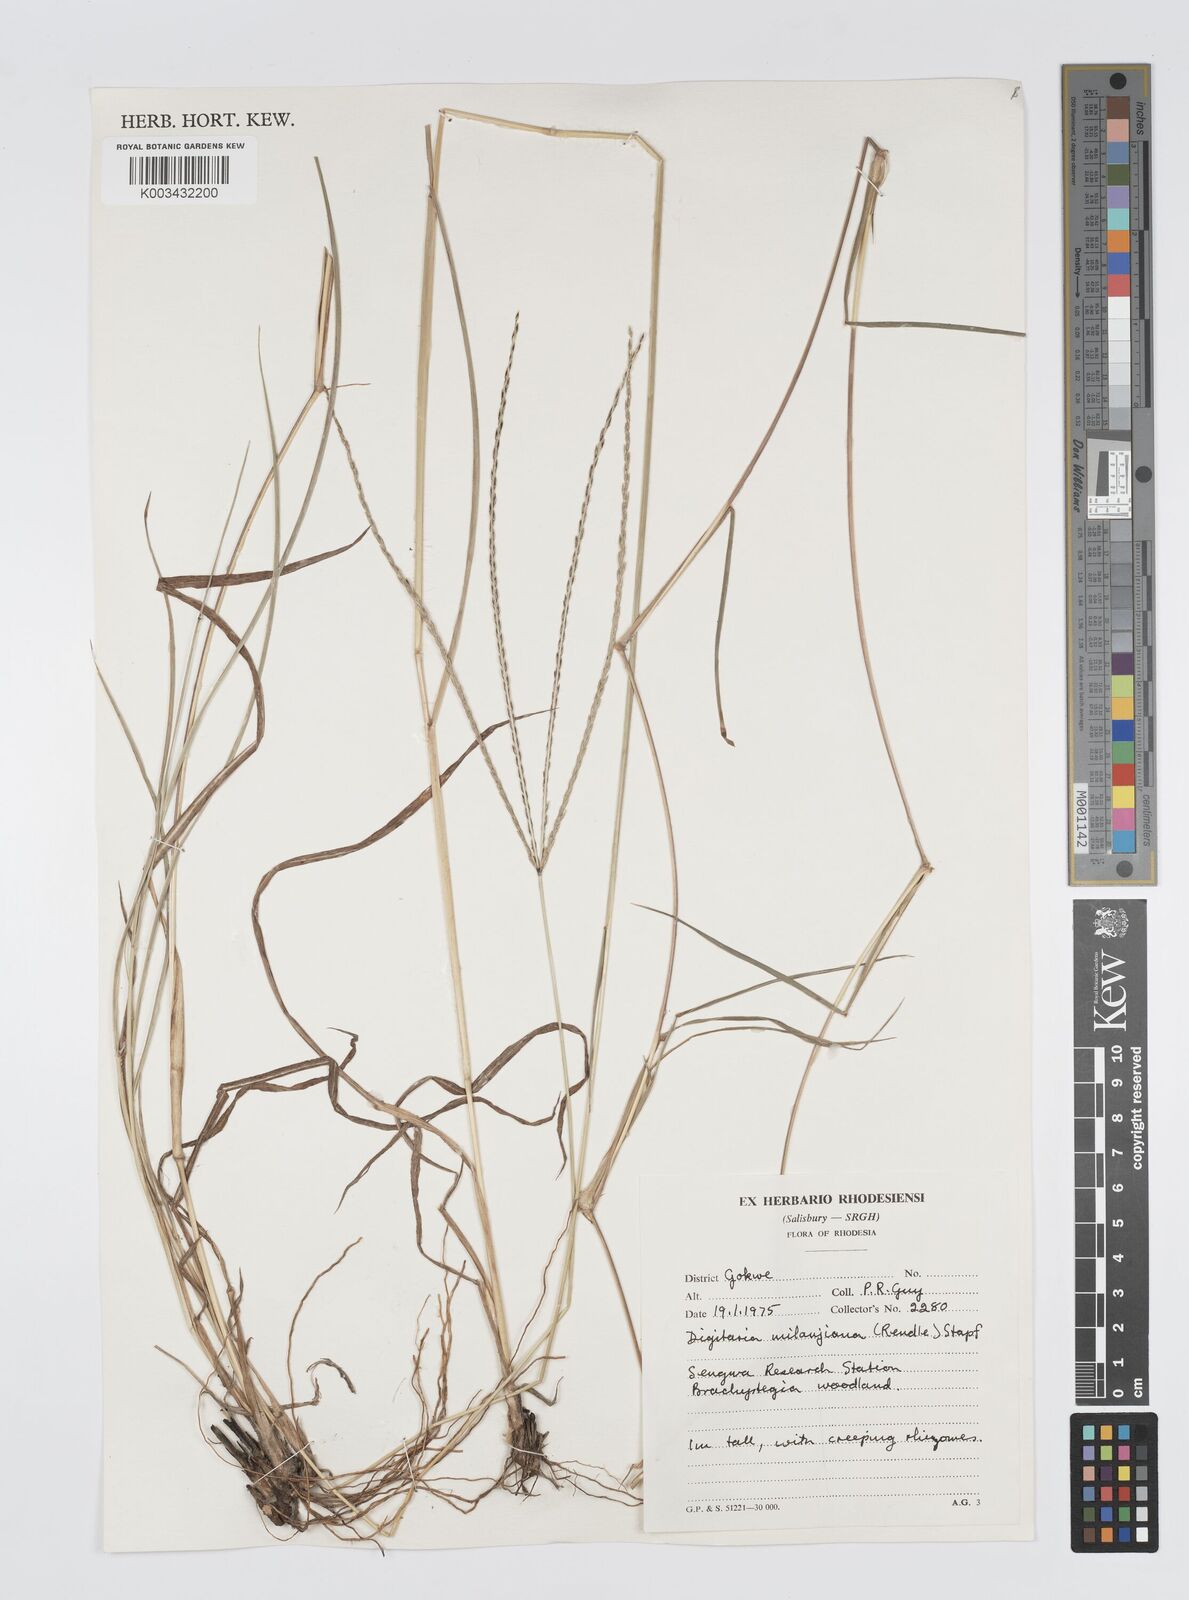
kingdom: Plantae
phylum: Tracheophyta
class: Liliopsida
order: Poales
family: Poaceae
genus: Digitaria
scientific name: Digitaria milanjiana
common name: Madagascar crabgrass
